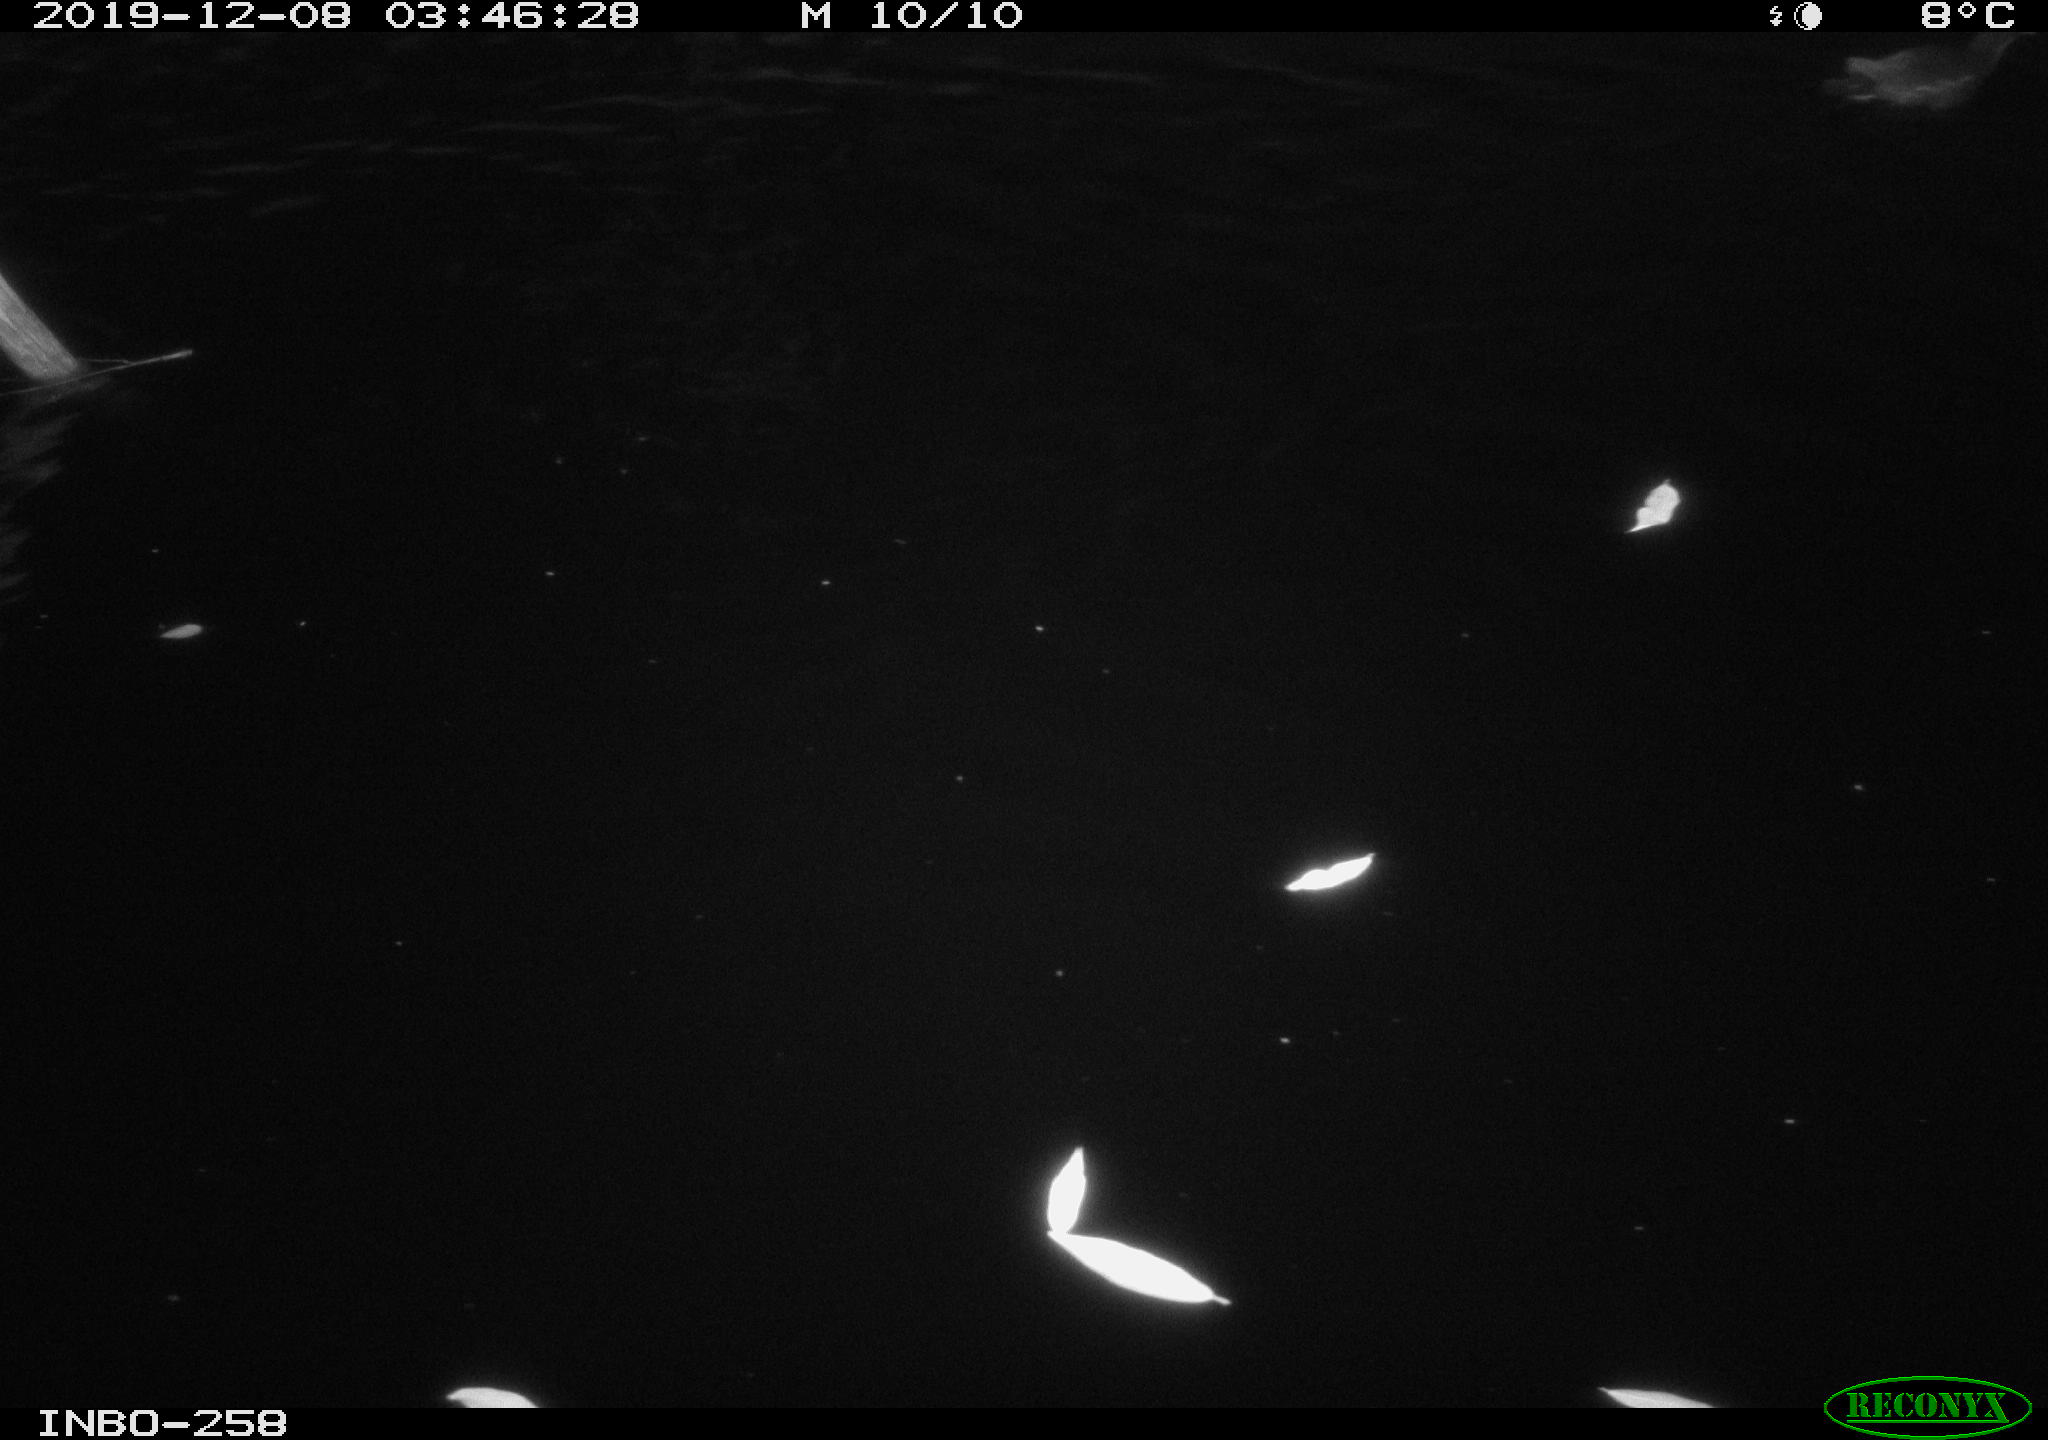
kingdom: Animalia
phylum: Chordata
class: Aves
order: Gruiformes
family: Rallidae
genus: Gallinula
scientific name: Gallinula chloropus
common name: Common moorhen
